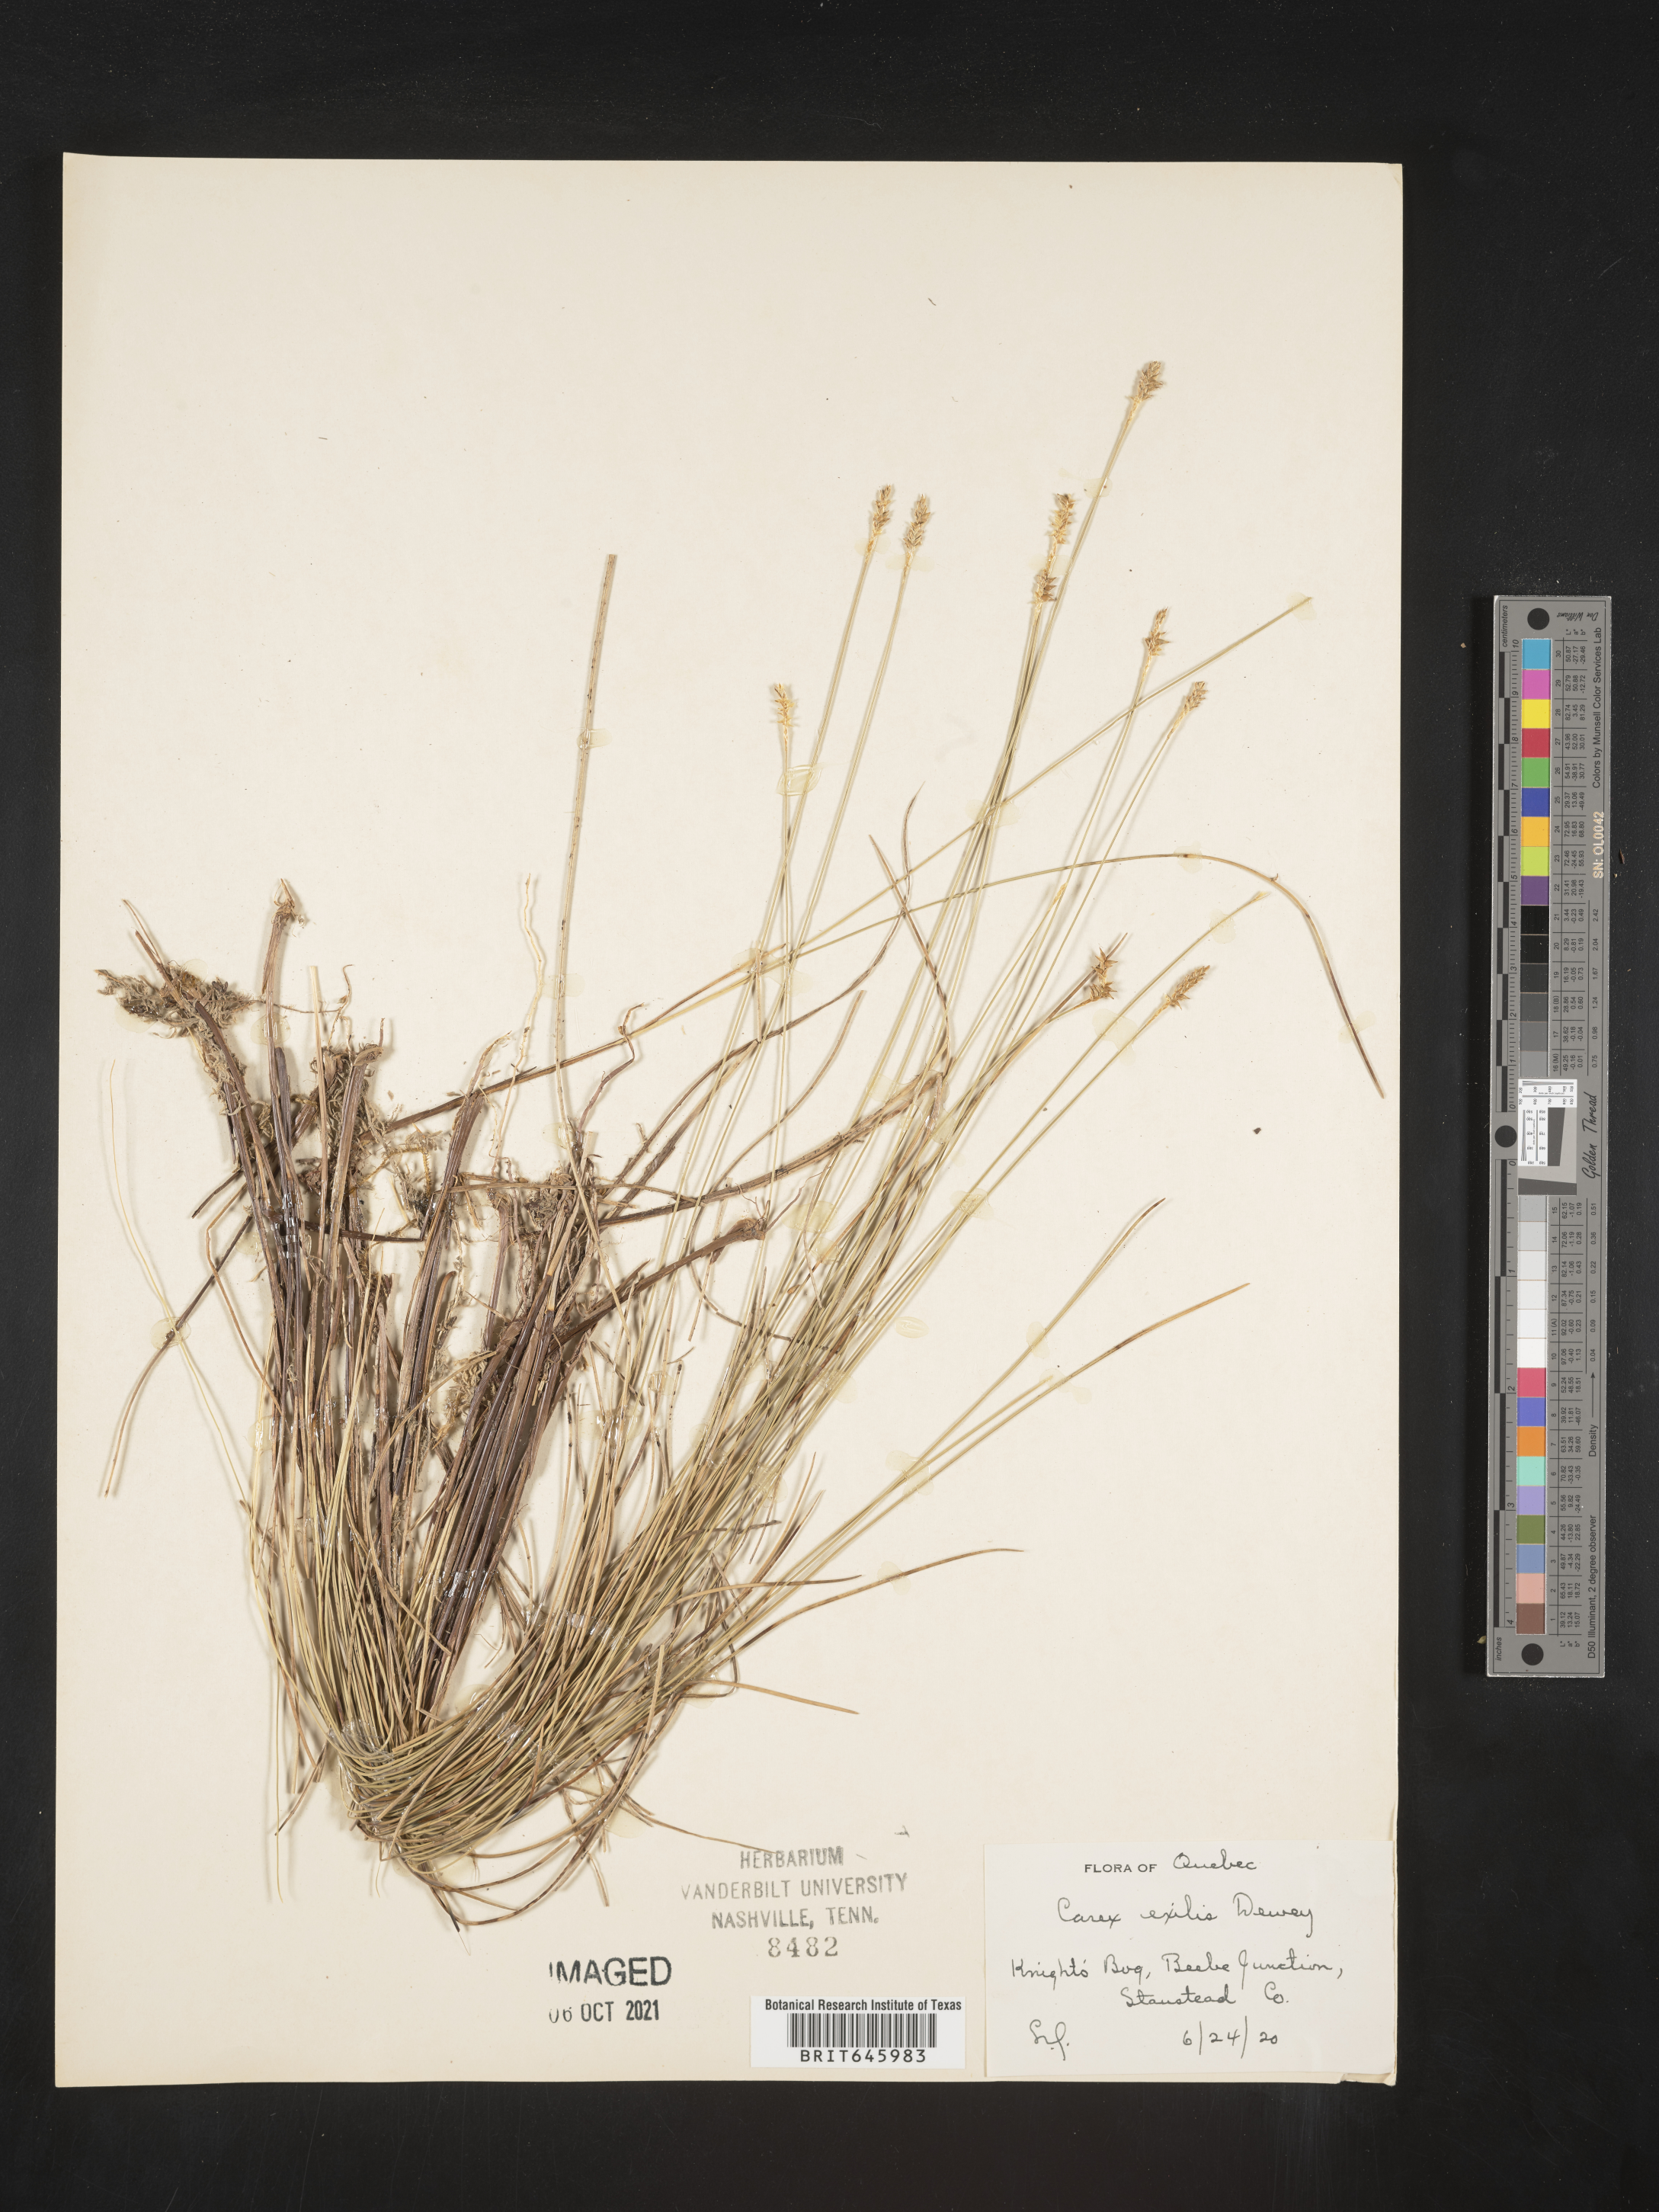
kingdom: Plantae
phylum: Tracheophyta
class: Liliopsida
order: Poales
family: Cyperaceae
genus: Carex
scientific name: Carex exilis
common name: Coastal sedge
